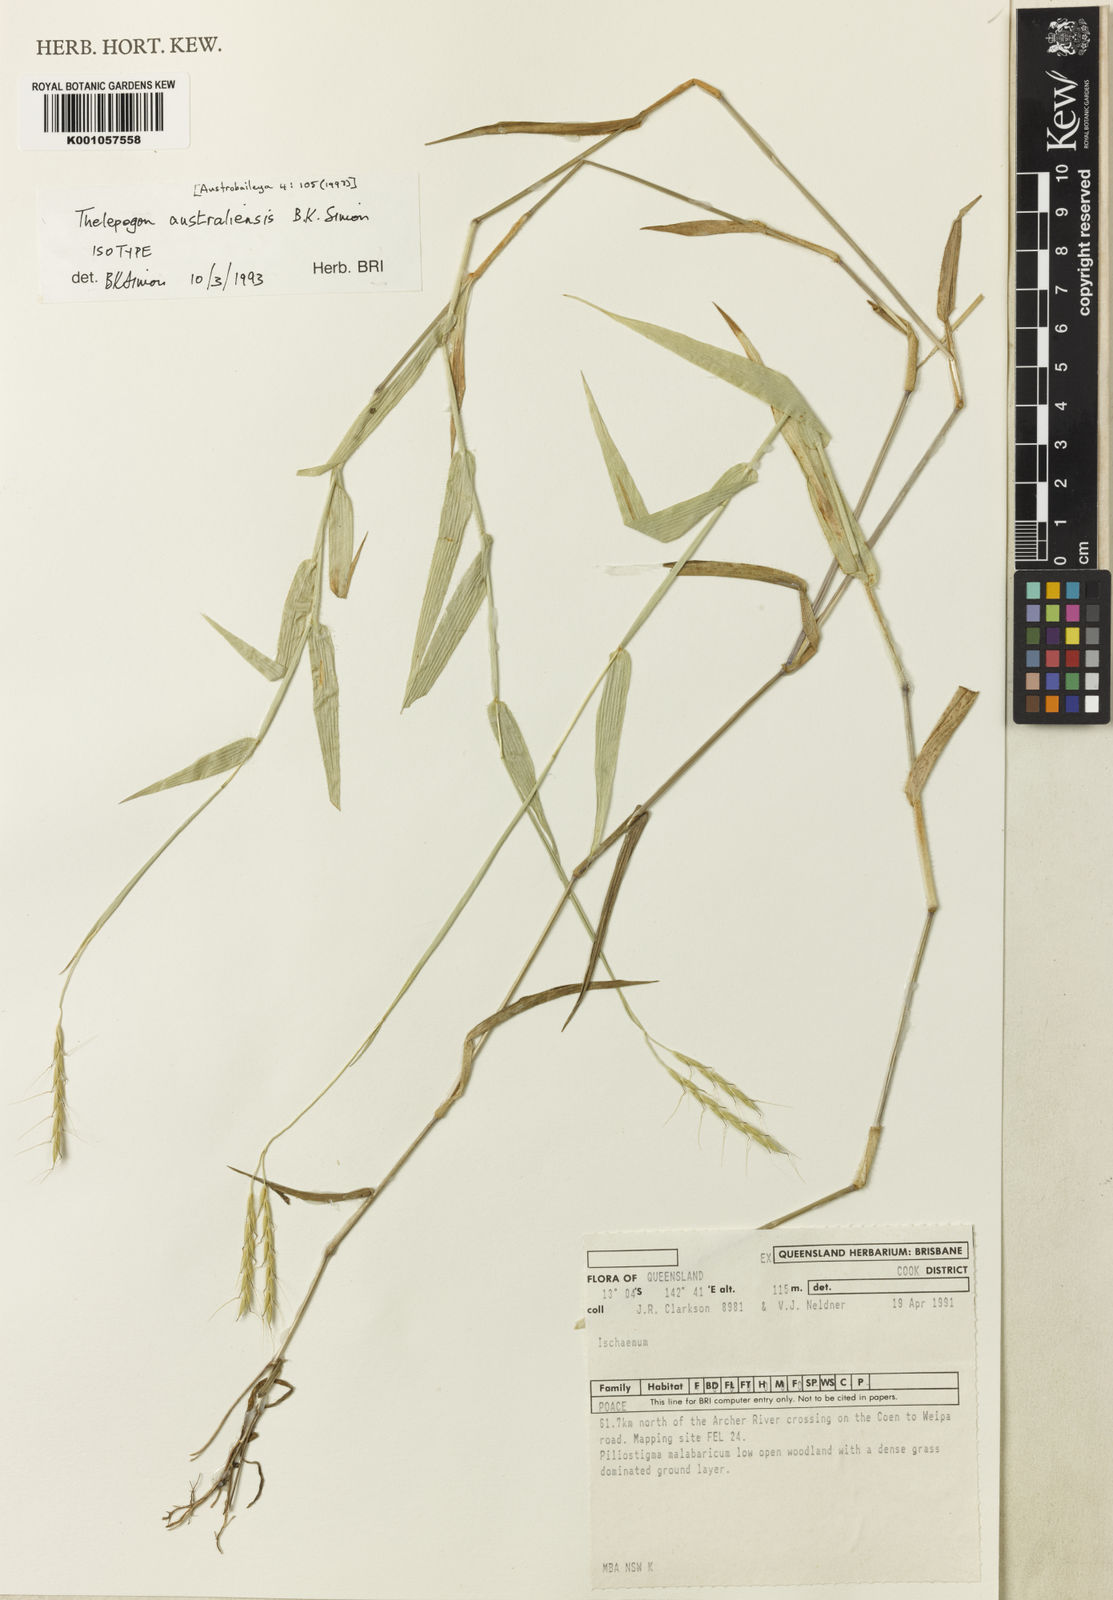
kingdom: Plantae
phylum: Tracheophyta
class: Liliopsida
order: Poales
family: Poaceae
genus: Arthraxon
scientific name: Arthraxon australiensis
